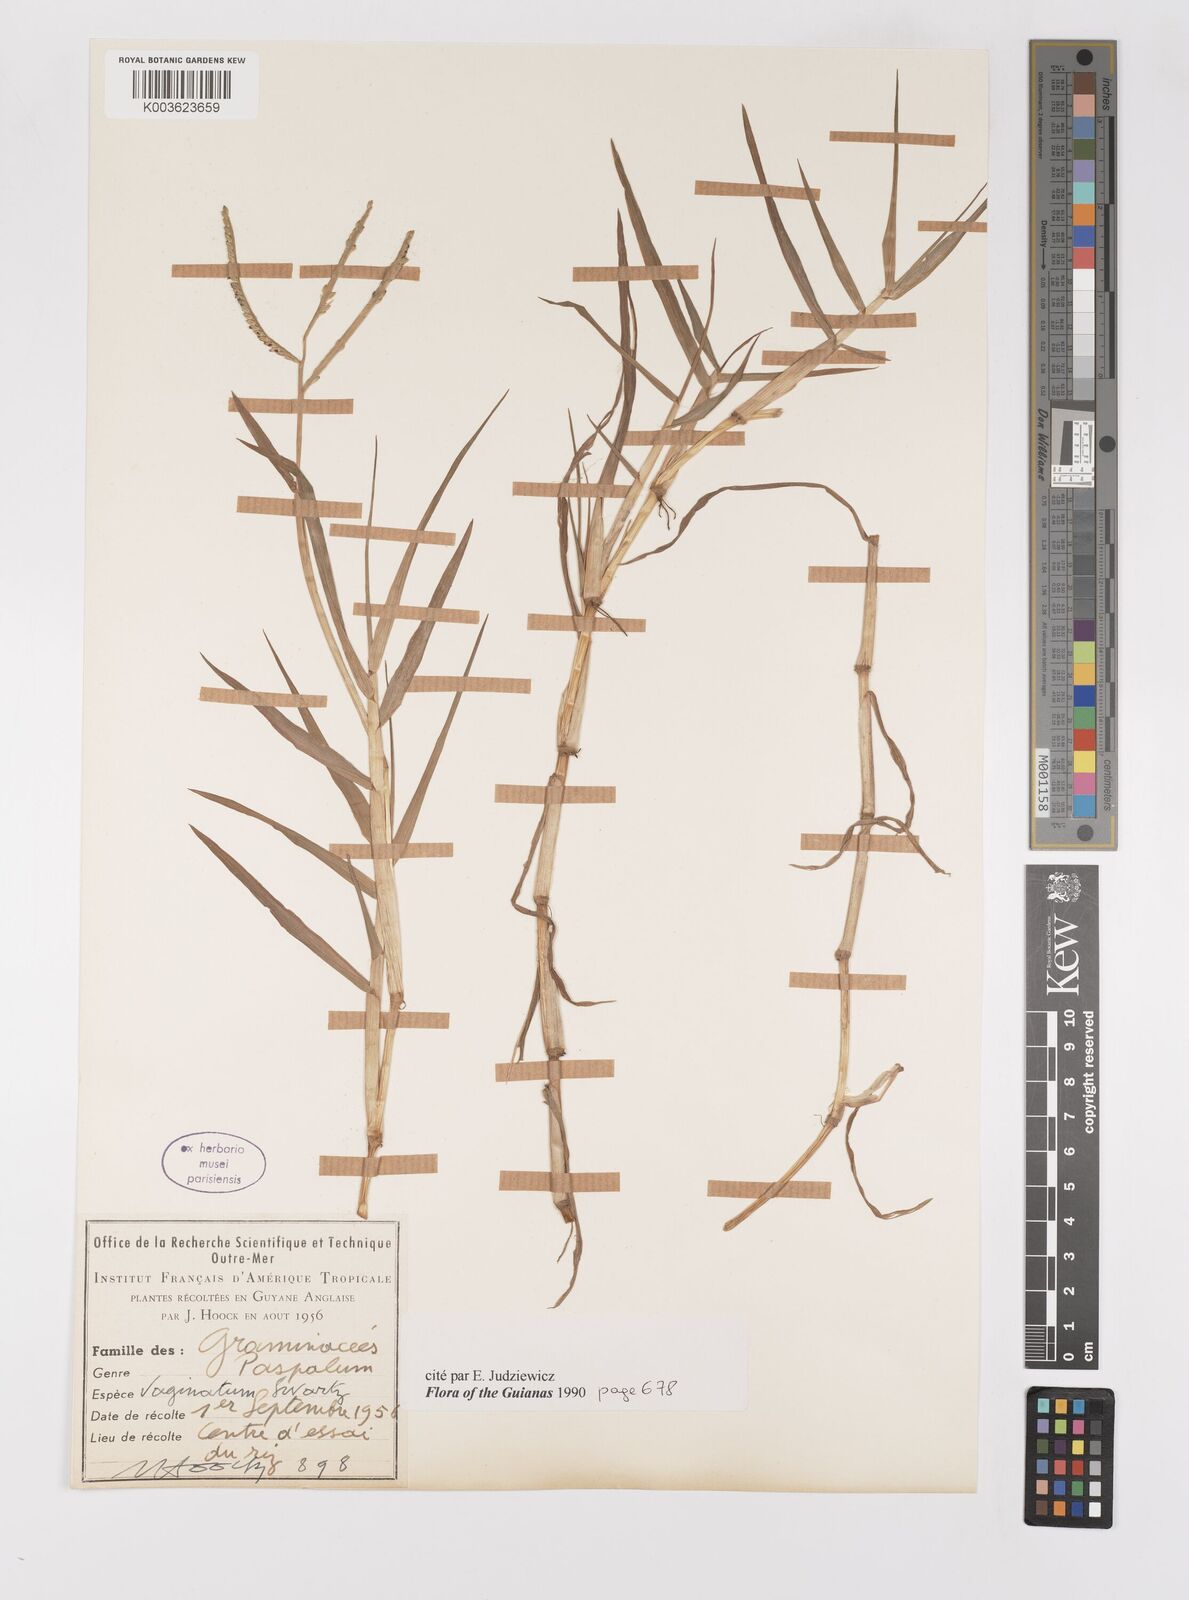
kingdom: Plantae
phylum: Tracheophyta
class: Liliopsida
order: Poales
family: Poaceae
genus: Paspalum
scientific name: Paspalum vaginatum
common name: Seashore paspalum
